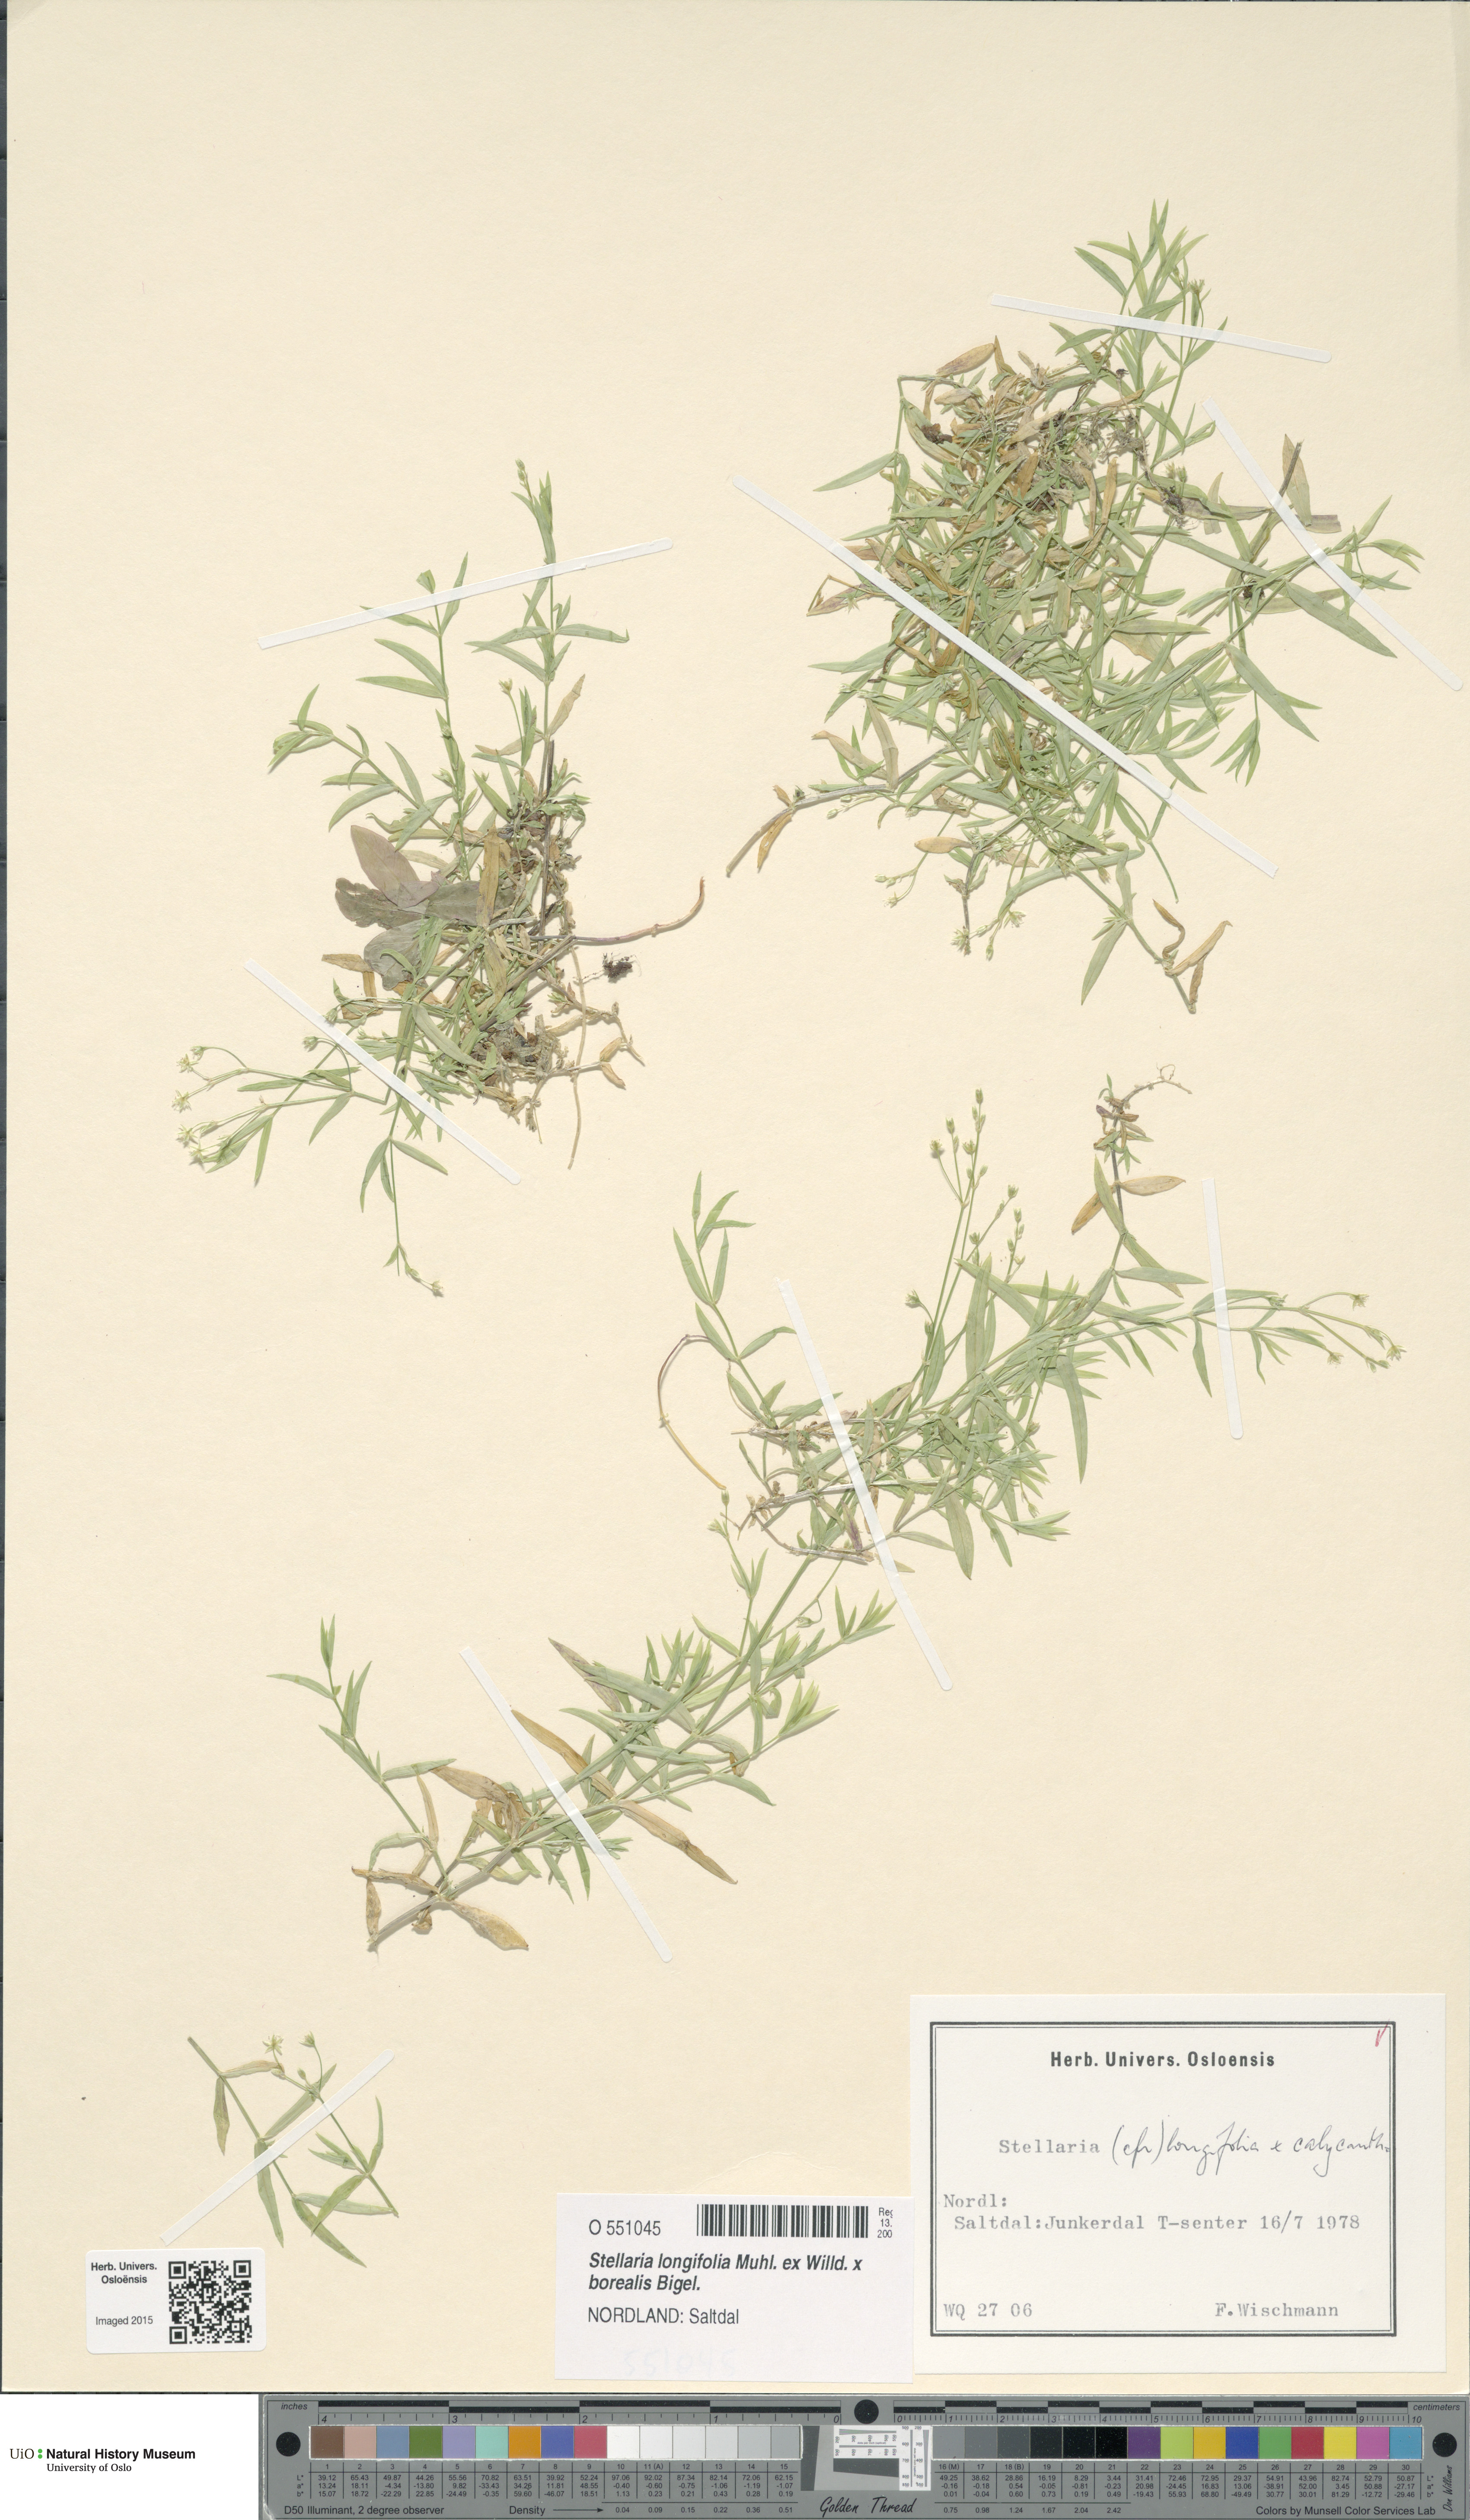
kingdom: Plantae
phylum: Tracheophyta
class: Magnoliopsida
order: Caryophyllales
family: Caryophyllaceae
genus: Stellaria
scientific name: Stellaria
